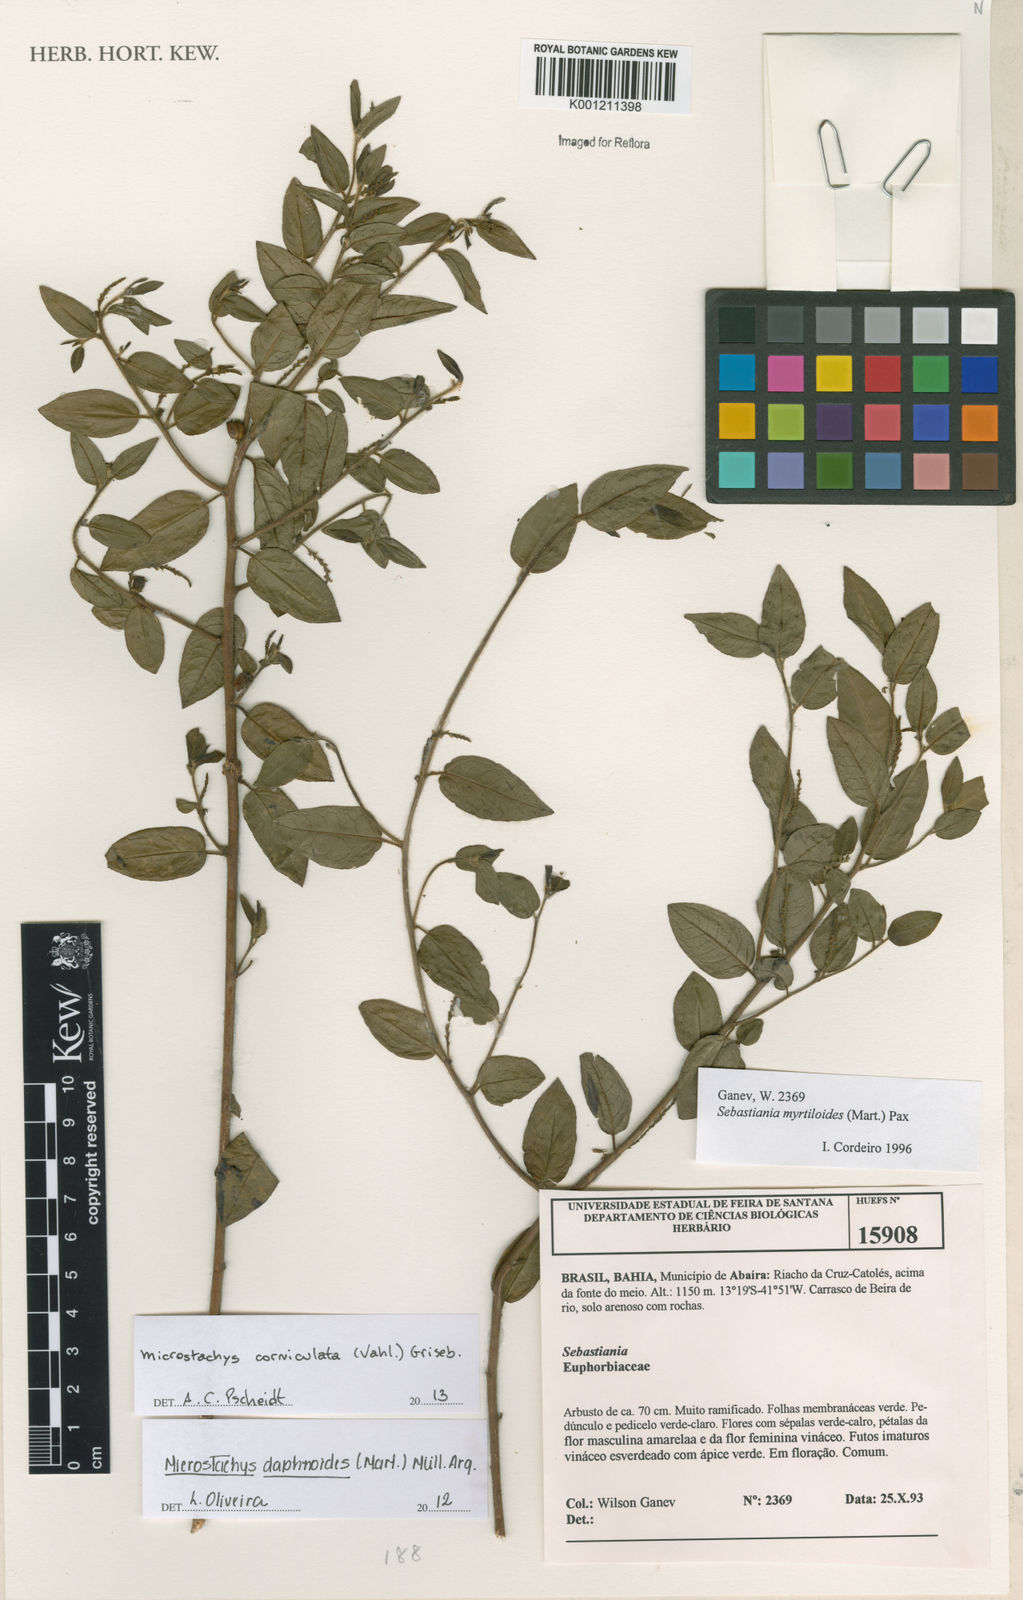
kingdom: Plantae
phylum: Tracheophyta
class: Magnoliopsida
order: Malpighiales
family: Euphorbiaceae
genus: Microstachys
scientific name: Microstachys corniculata
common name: Hato tejas
